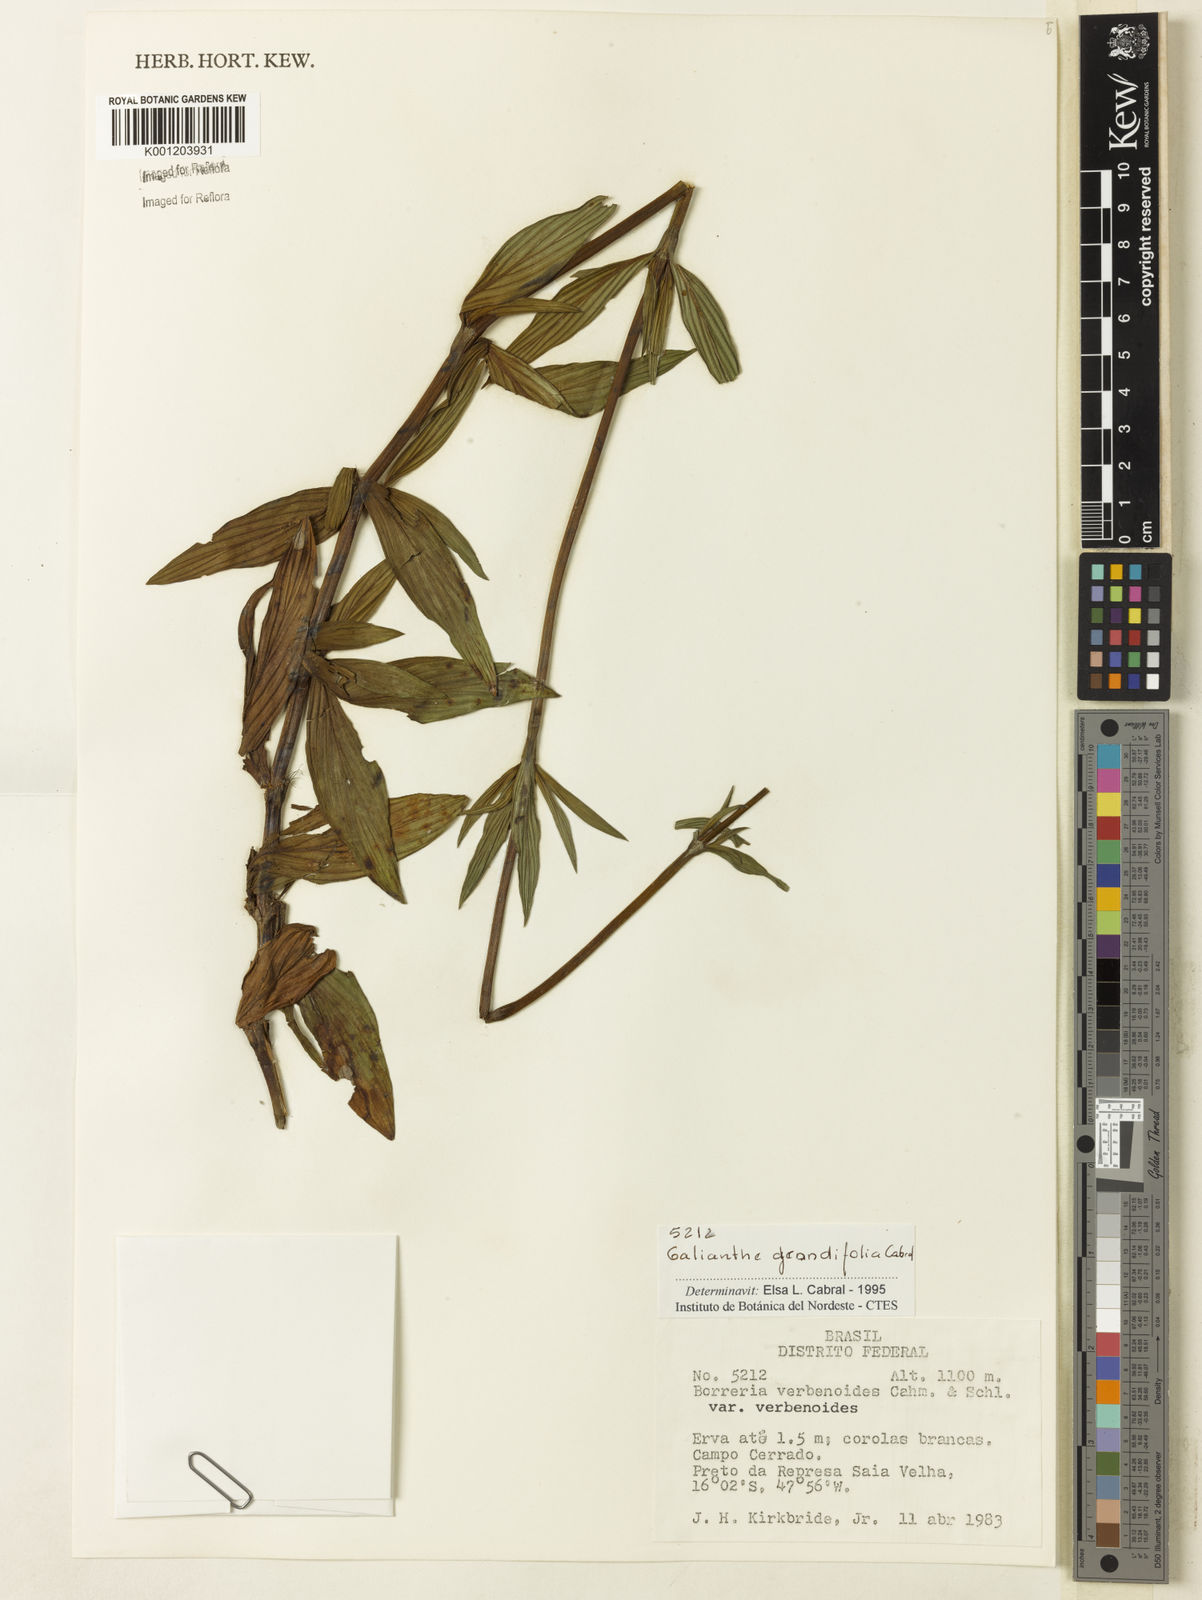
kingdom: Plantae
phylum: Tracheophyta
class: Magnoliopsida
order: Gentianales
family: Rubiaceae
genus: Galianthe
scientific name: Galianthe grandifolia
